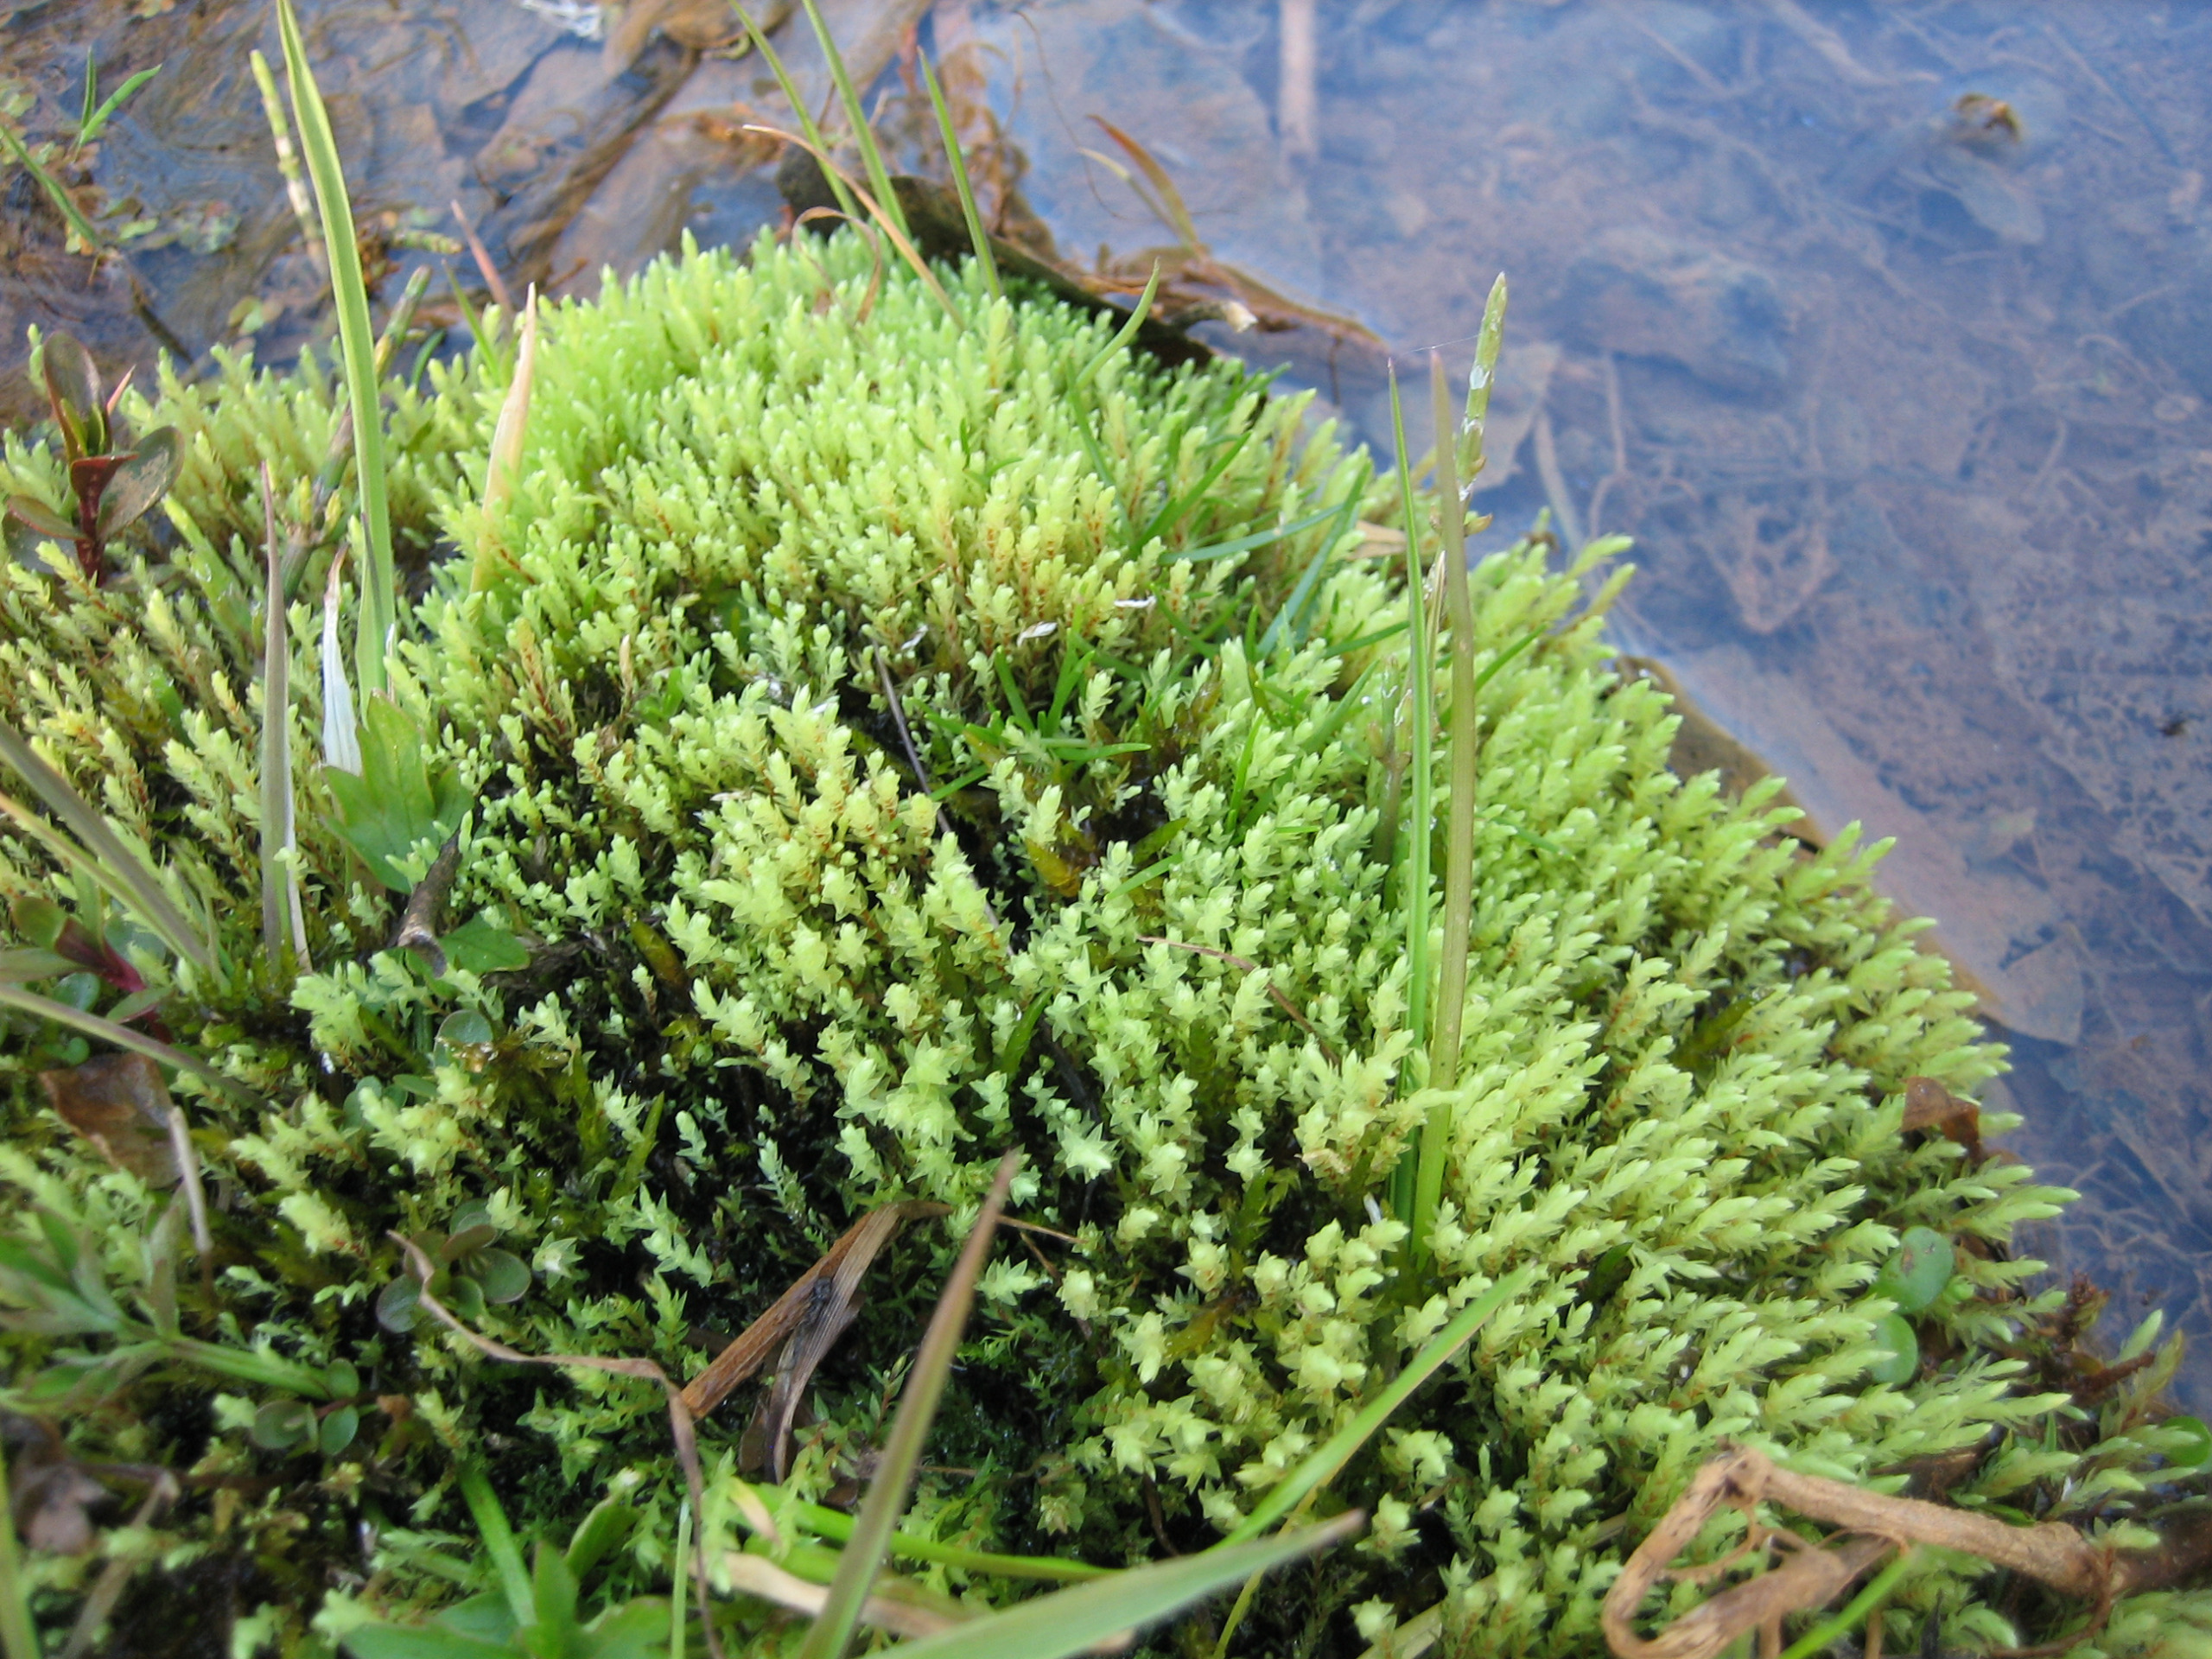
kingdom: Plantae
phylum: Bryophyta
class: Bryopsida
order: Bryales
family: Mniaceae
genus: Pohlia
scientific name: Pohlia wahlenbergii
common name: Lysegrøn voksmos
